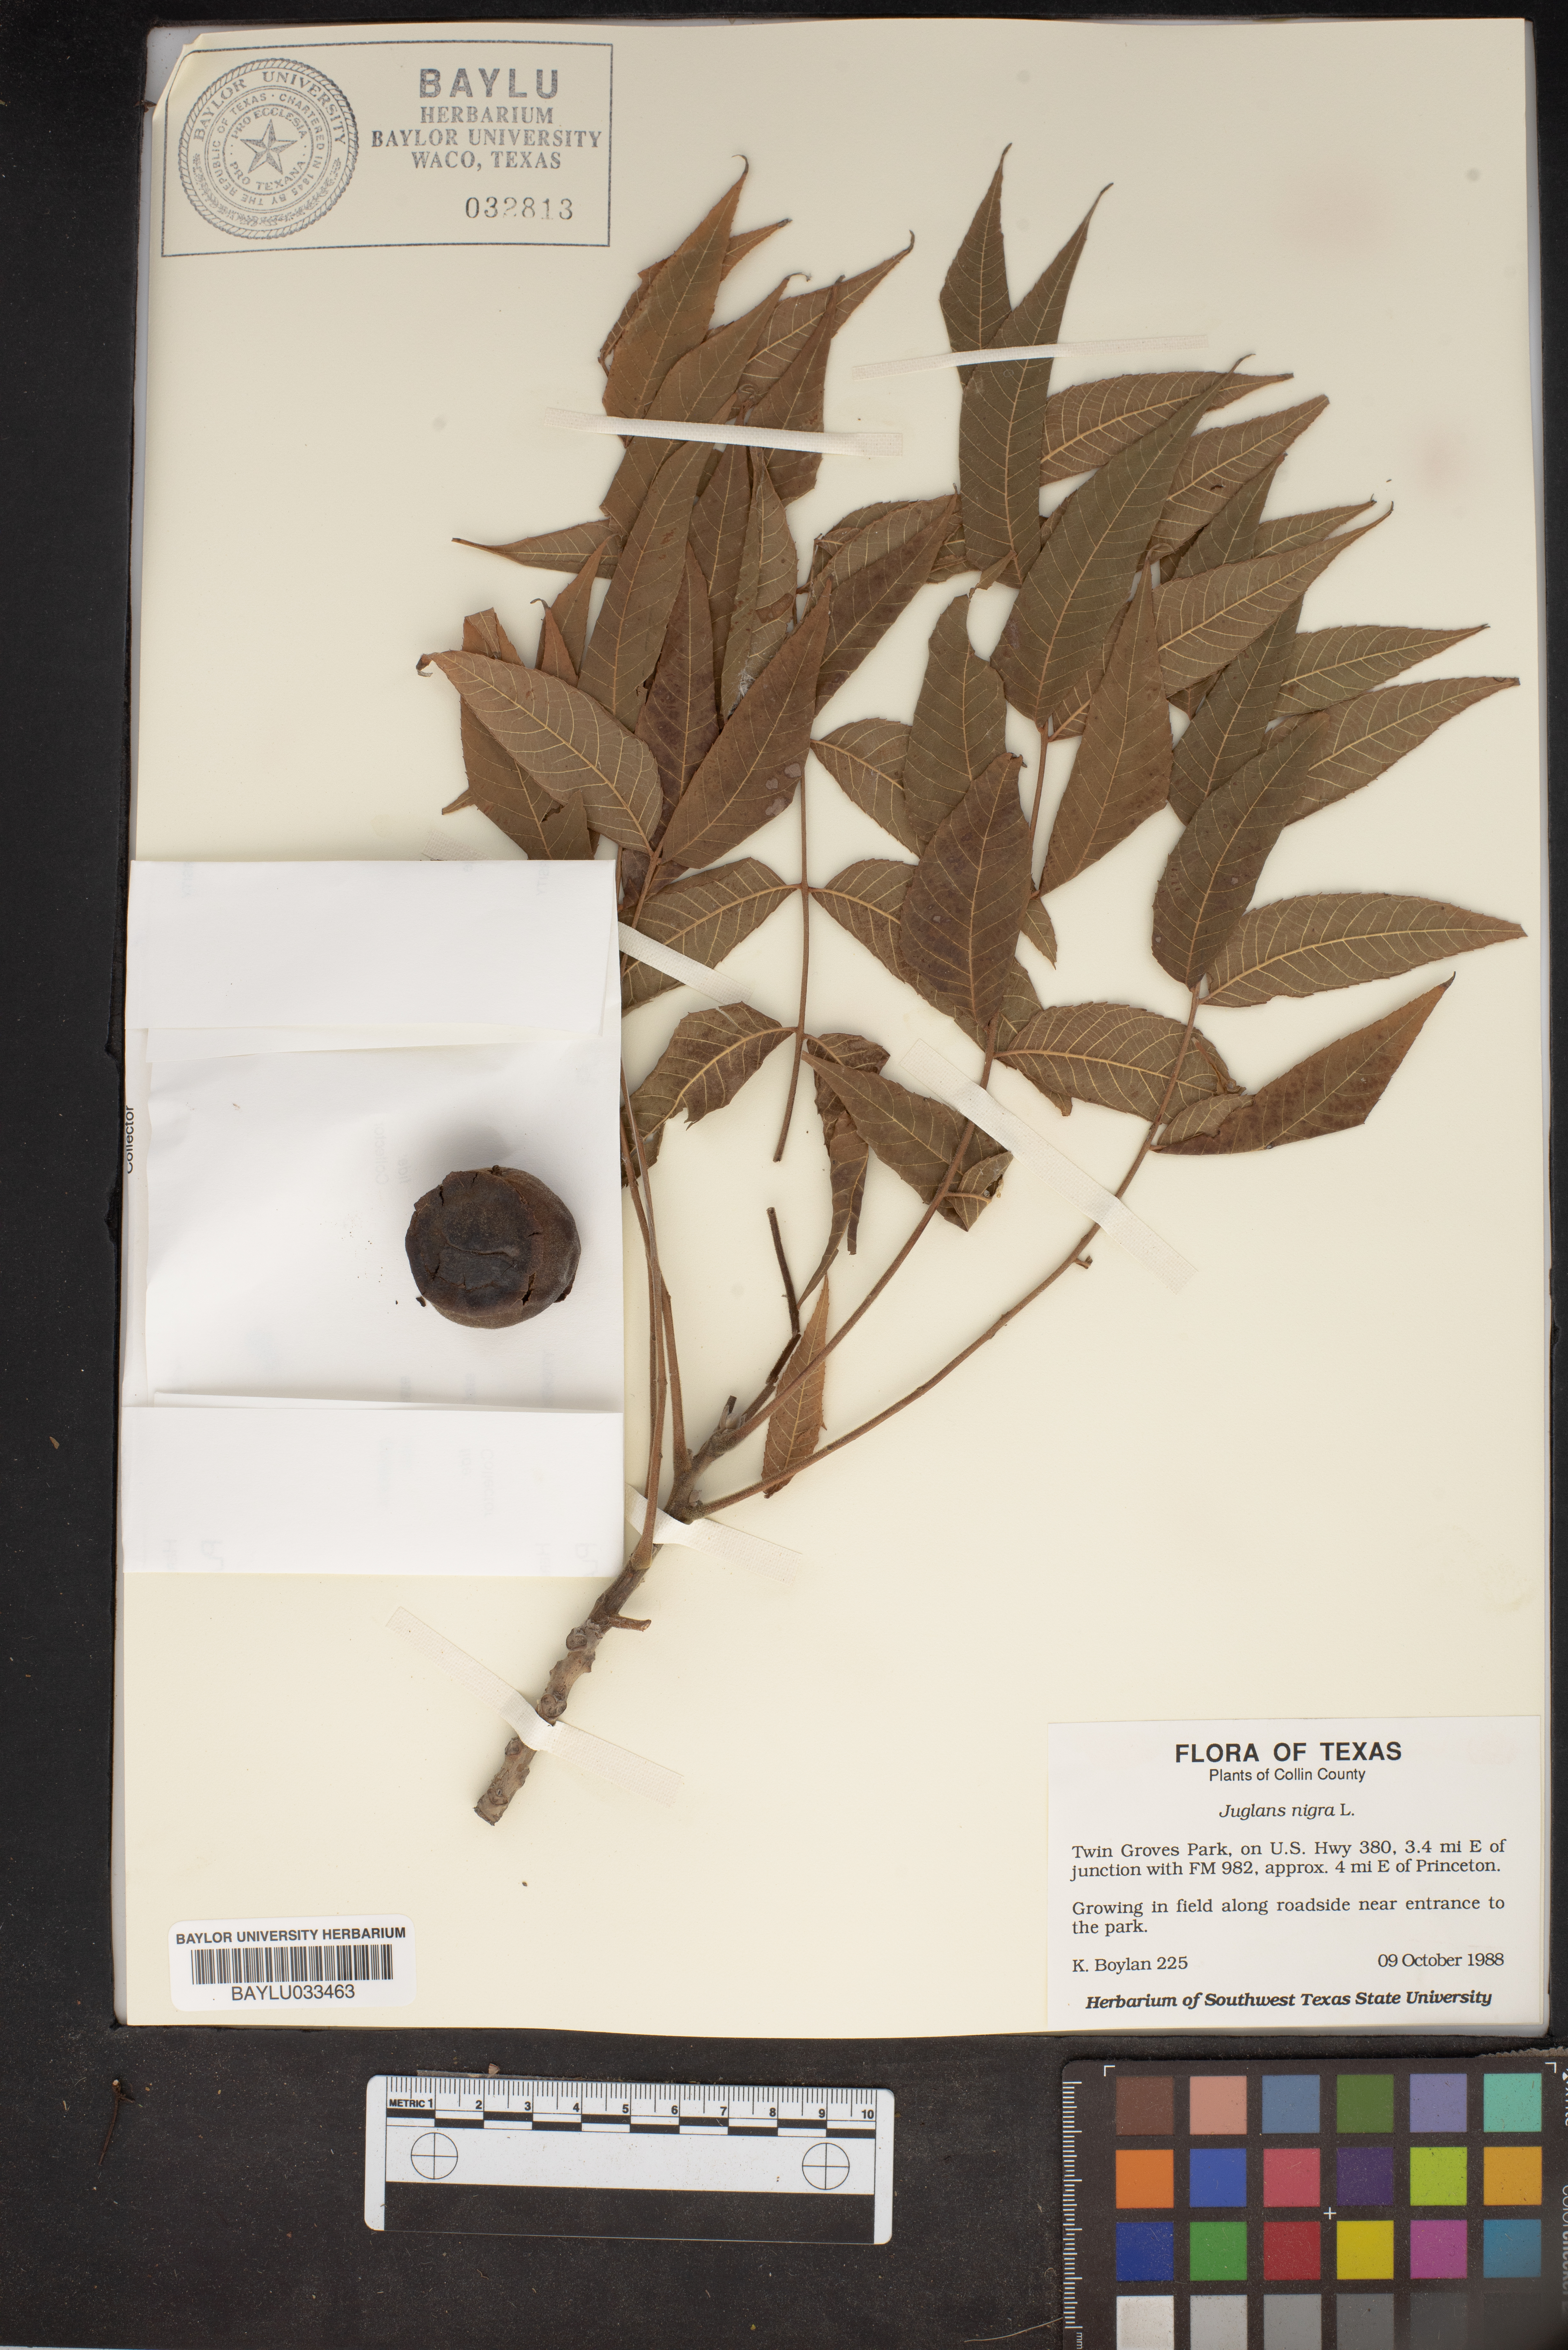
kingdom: Plantae
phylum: Tracheophyta
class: Magnoliopsida
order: Fagales
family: Juglandaceae
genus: Juglans
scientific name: Juglans nigra
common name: Black walnut
